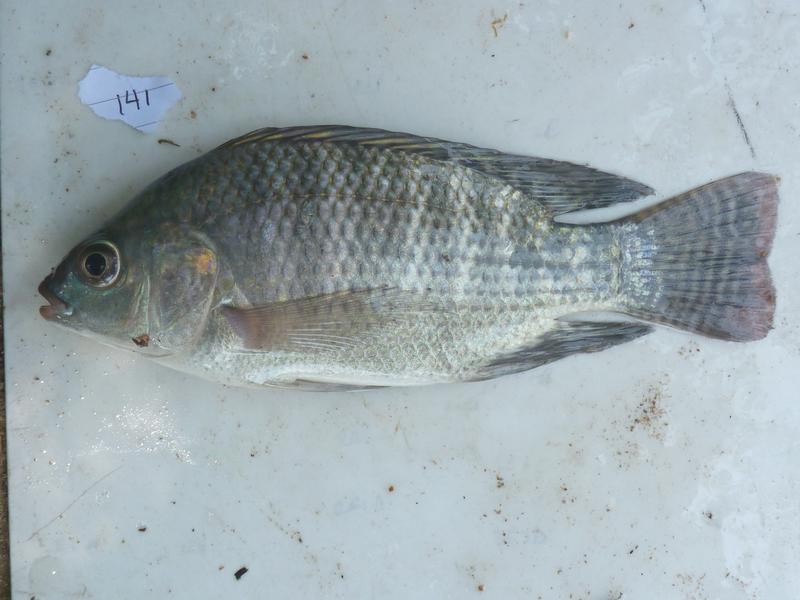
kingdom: Animalia
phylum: Chordata
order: Perciformes
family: Cichlidae
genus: Oreochromis
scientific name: Oreochromis
